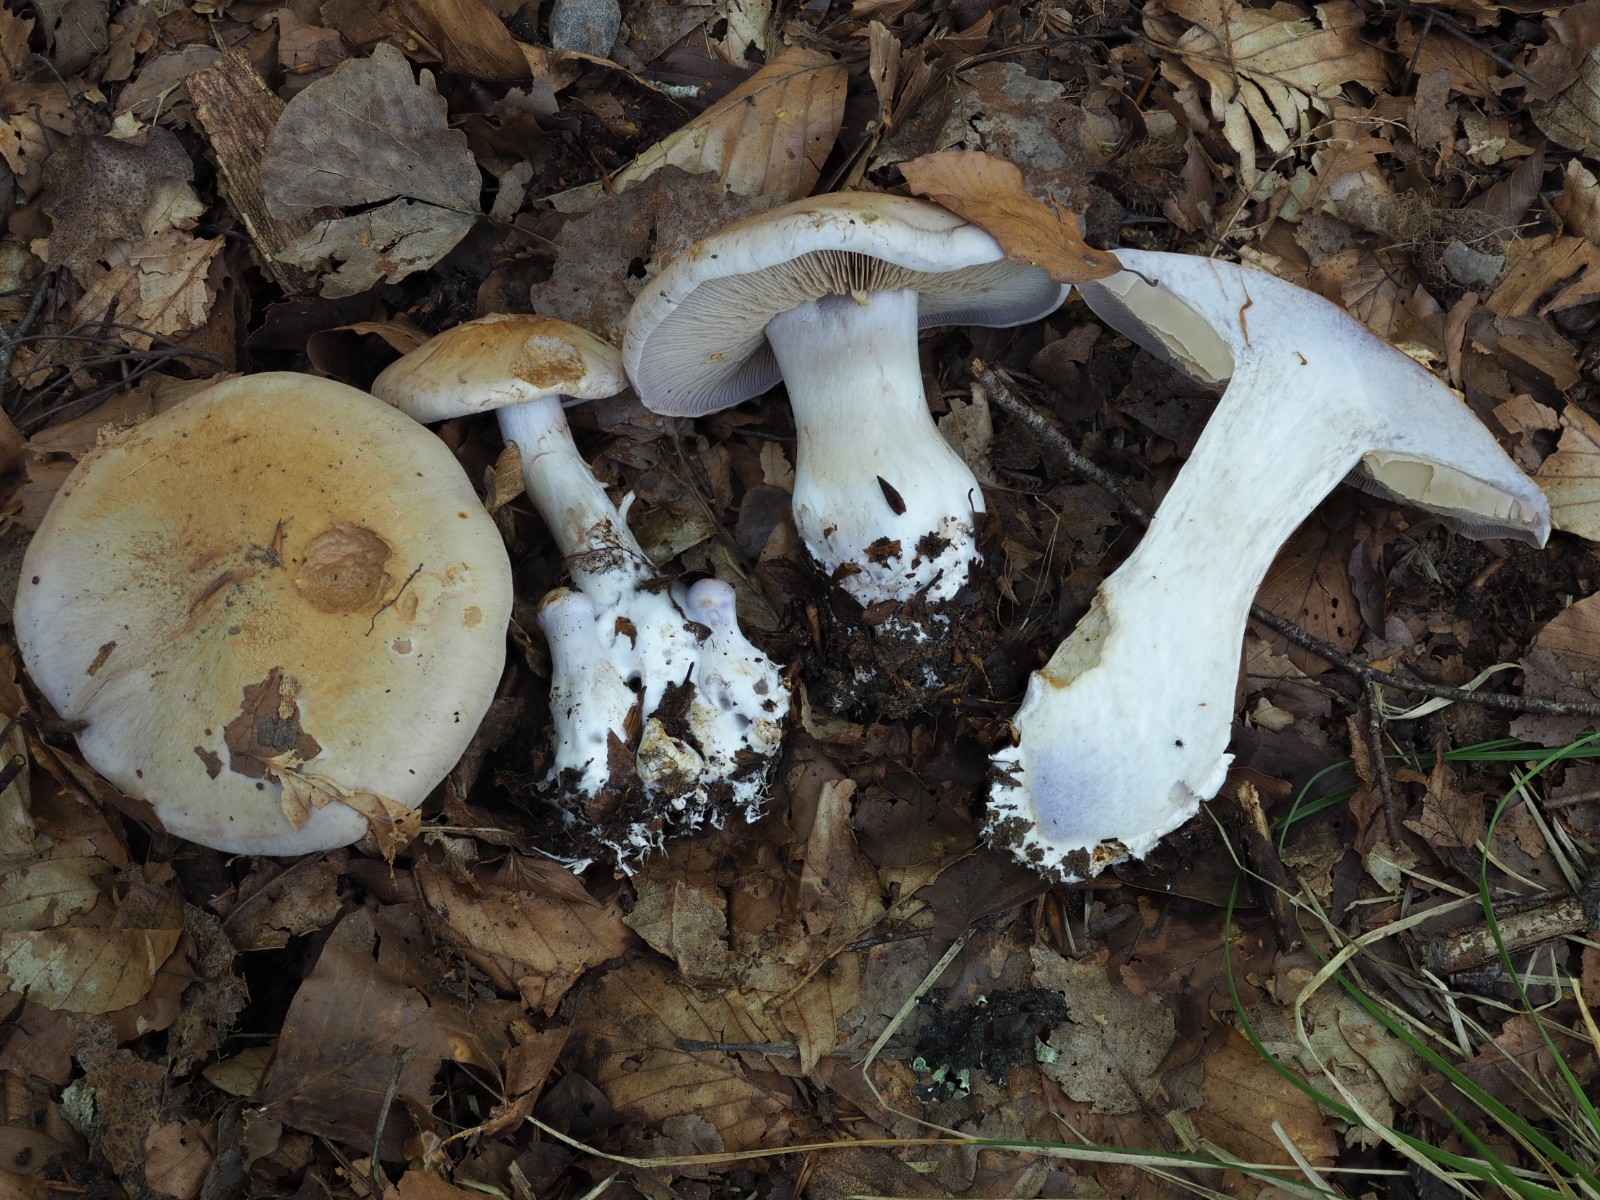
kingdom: Fungi
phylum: Basidiomycota
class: Agaricomycetes
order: Agaricales
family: Cortinariaceae
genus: Cortinarius
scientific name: Cortinarius largus
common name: violetrandet slørhat
